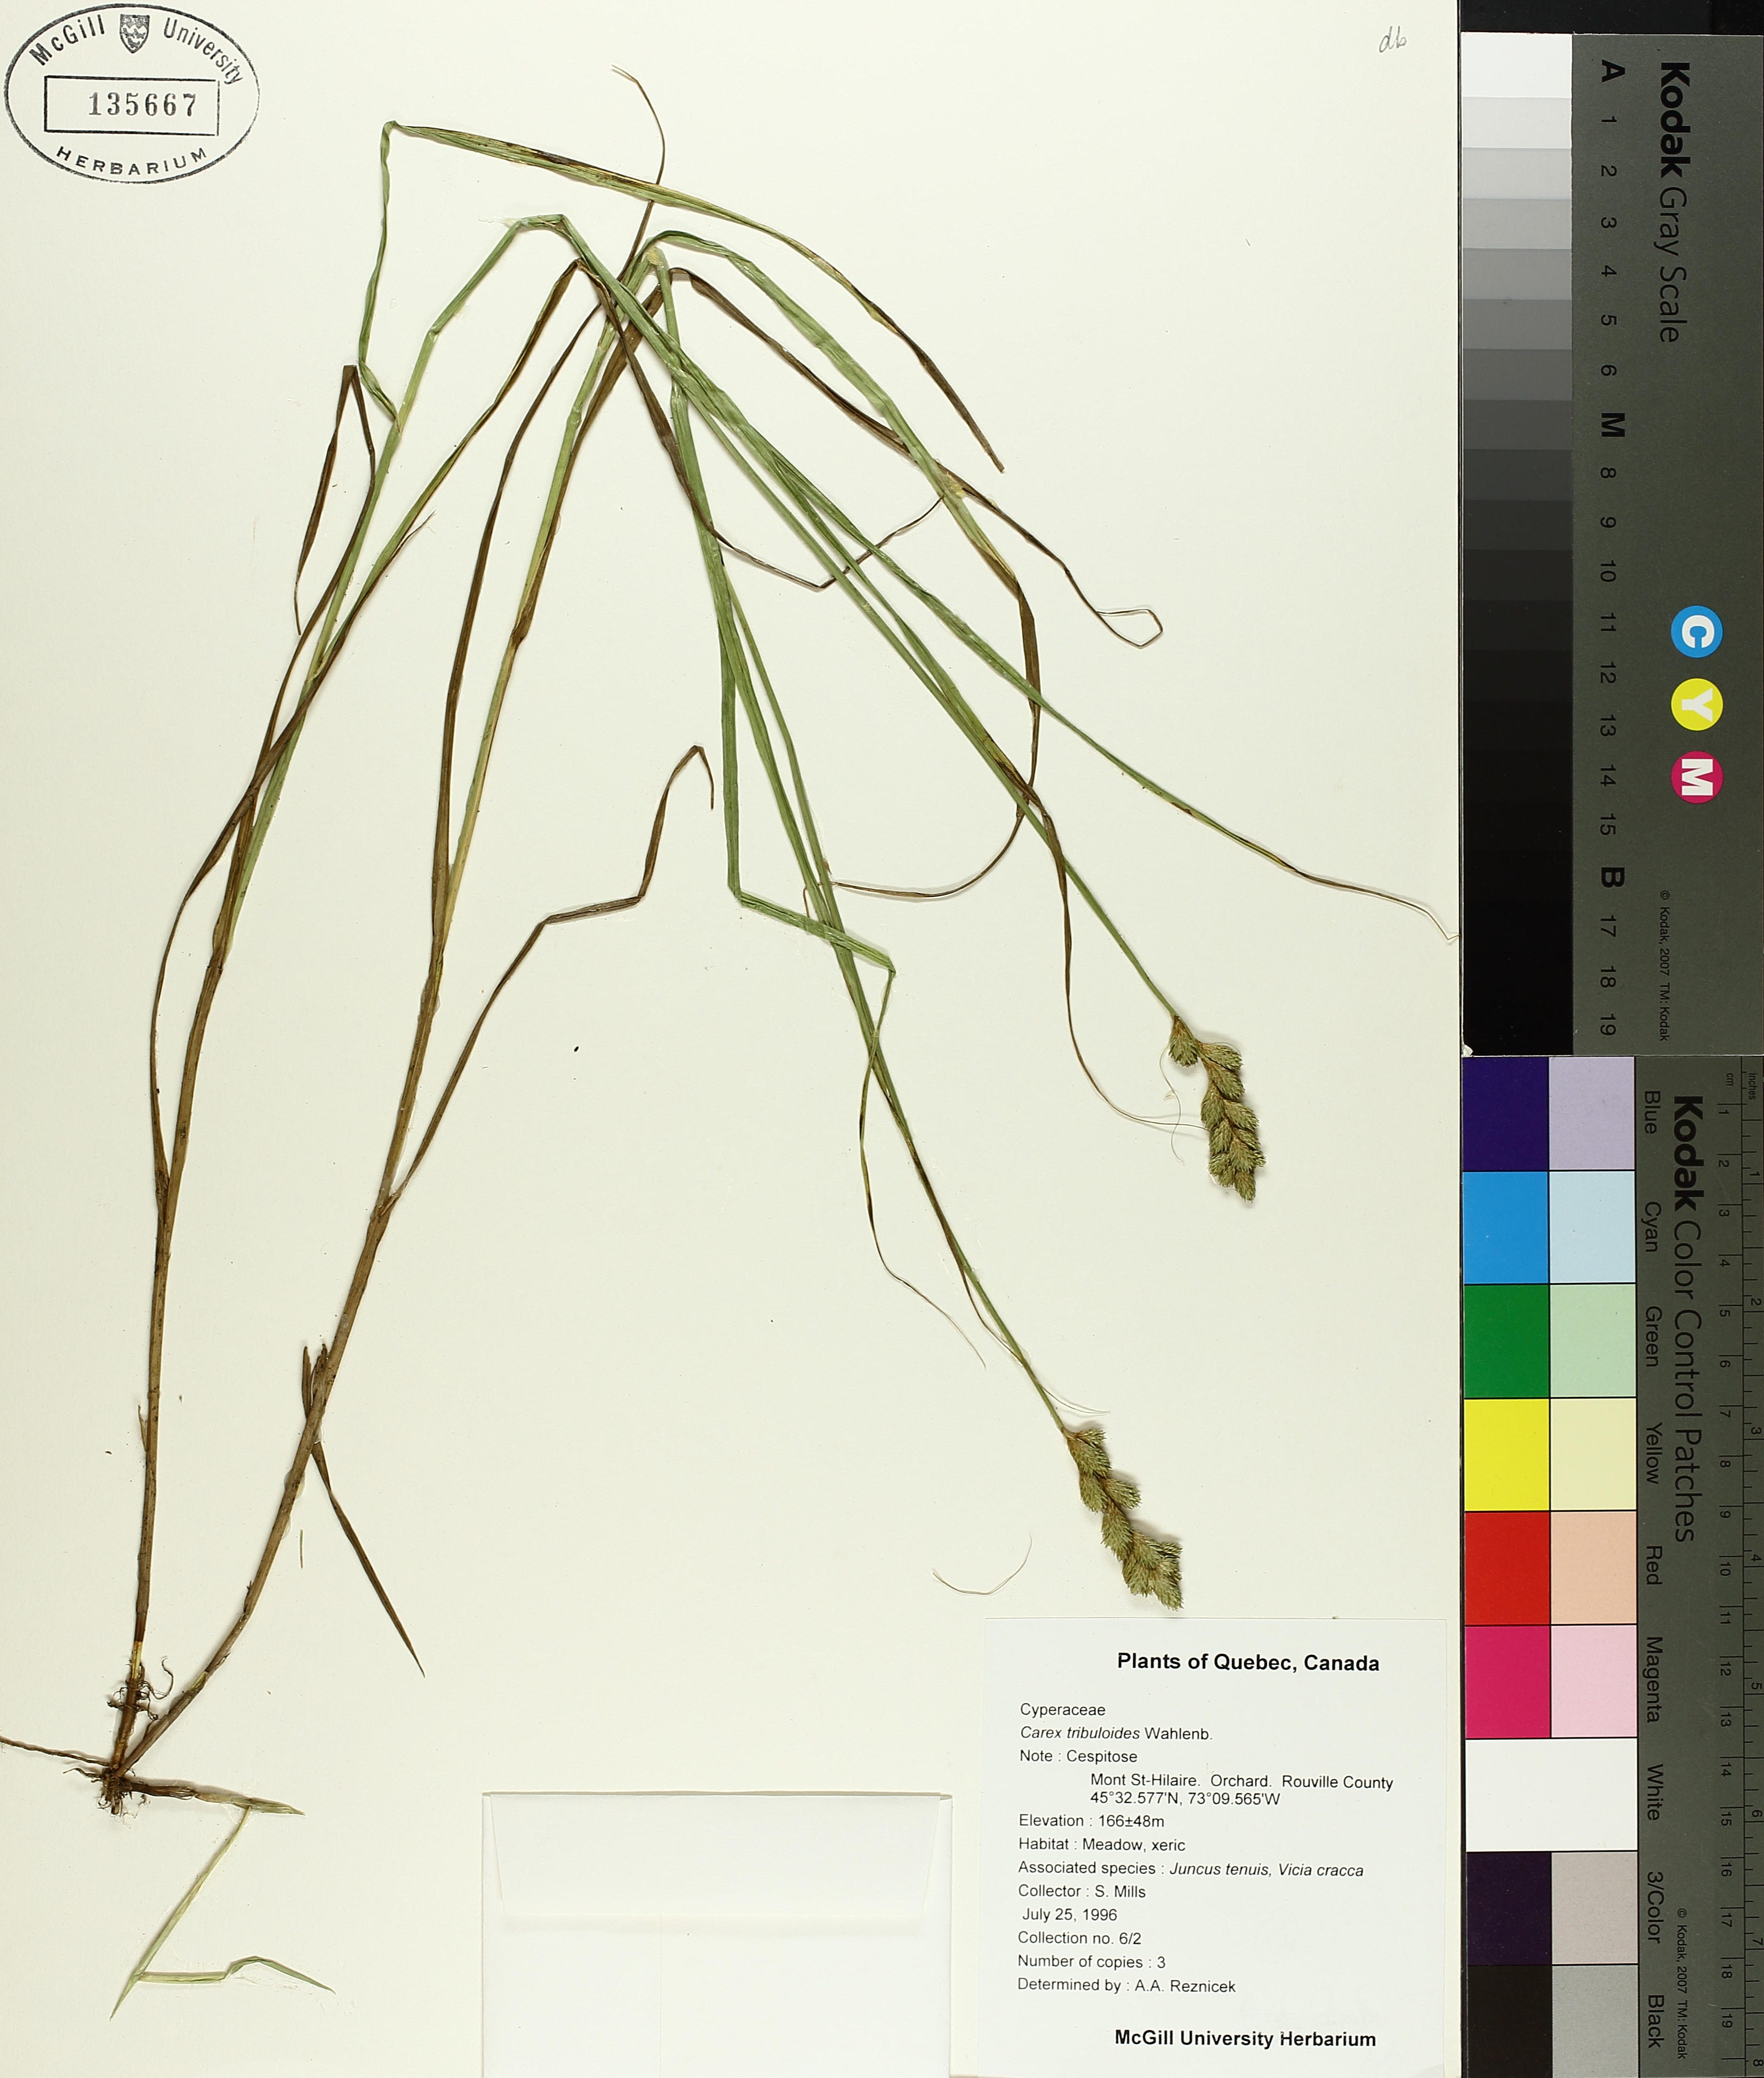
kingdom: Plantae
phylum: Tracheophyta
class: Liliopsida
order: Poales
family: Cyperaceae
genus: Carex
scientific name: Carex tribuloides
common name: Blunt broom sedge
